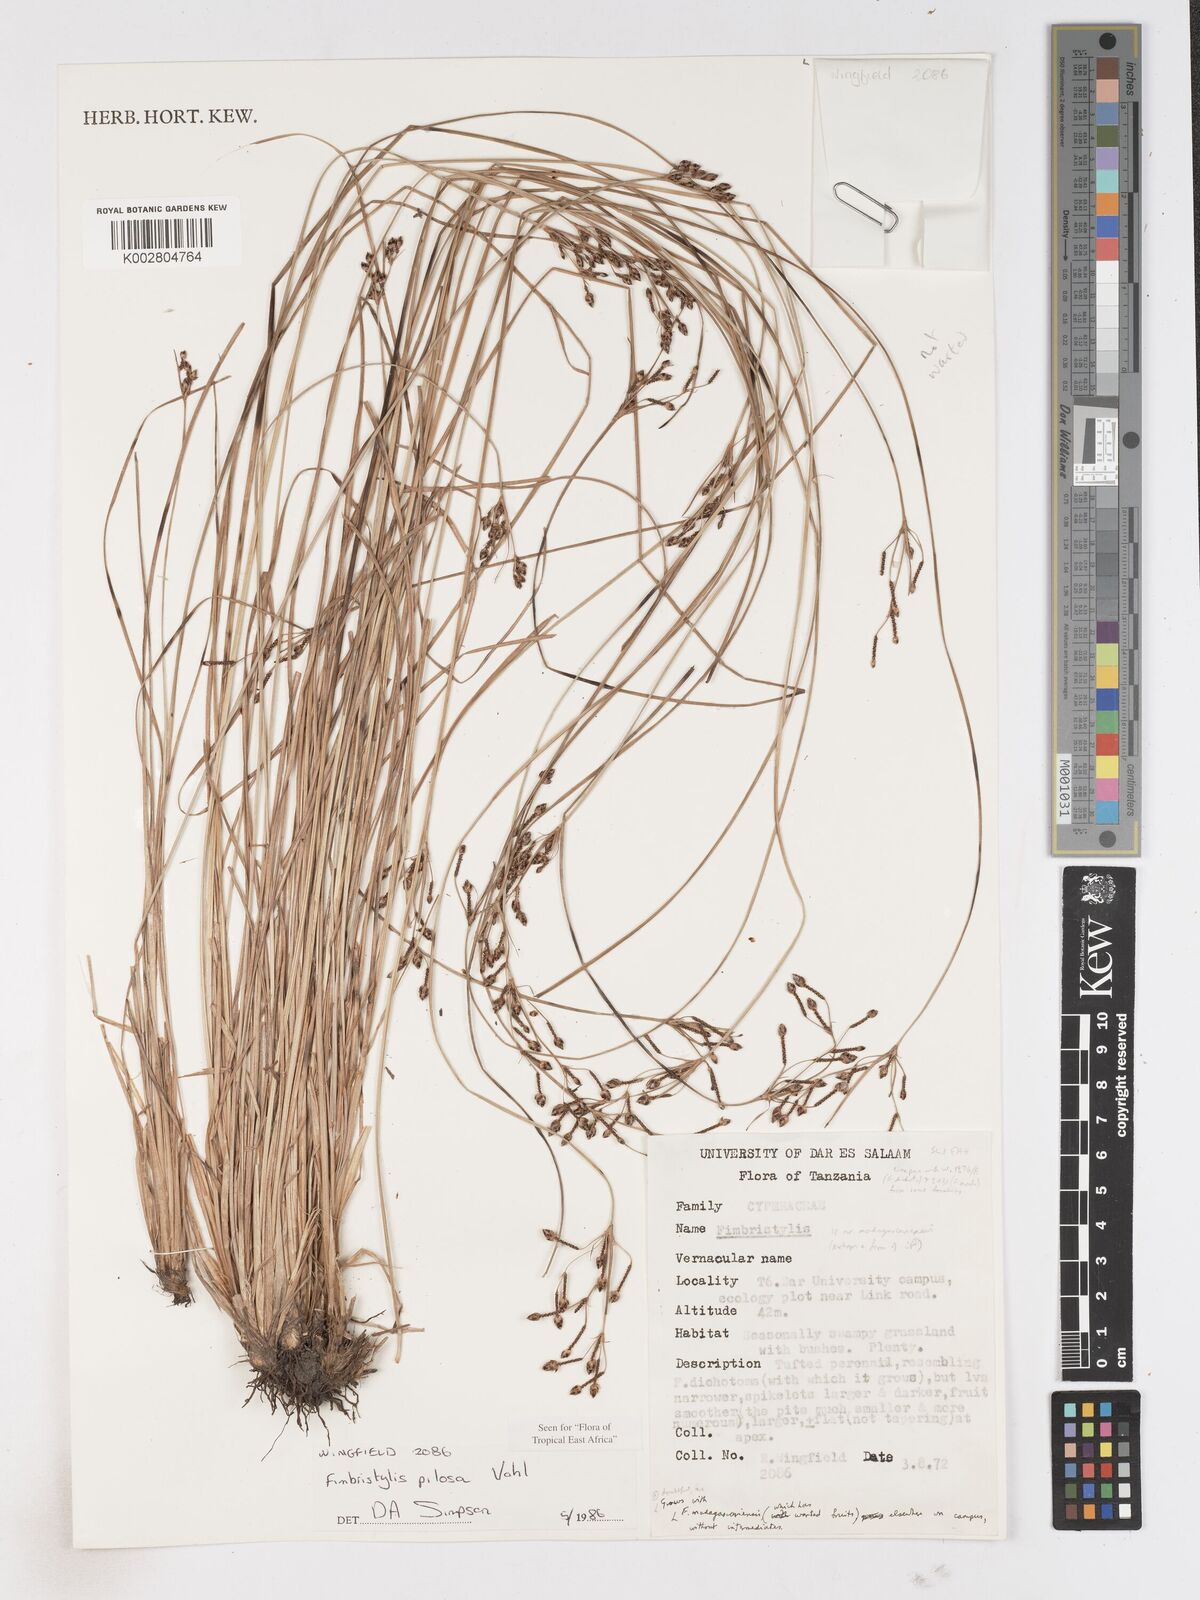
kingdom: Plantae
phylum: Tracheophyta
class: Liliopsida
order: Poales
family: Cyperaceae
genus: Fimbristylis
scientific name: Fimbristylis pilosa
